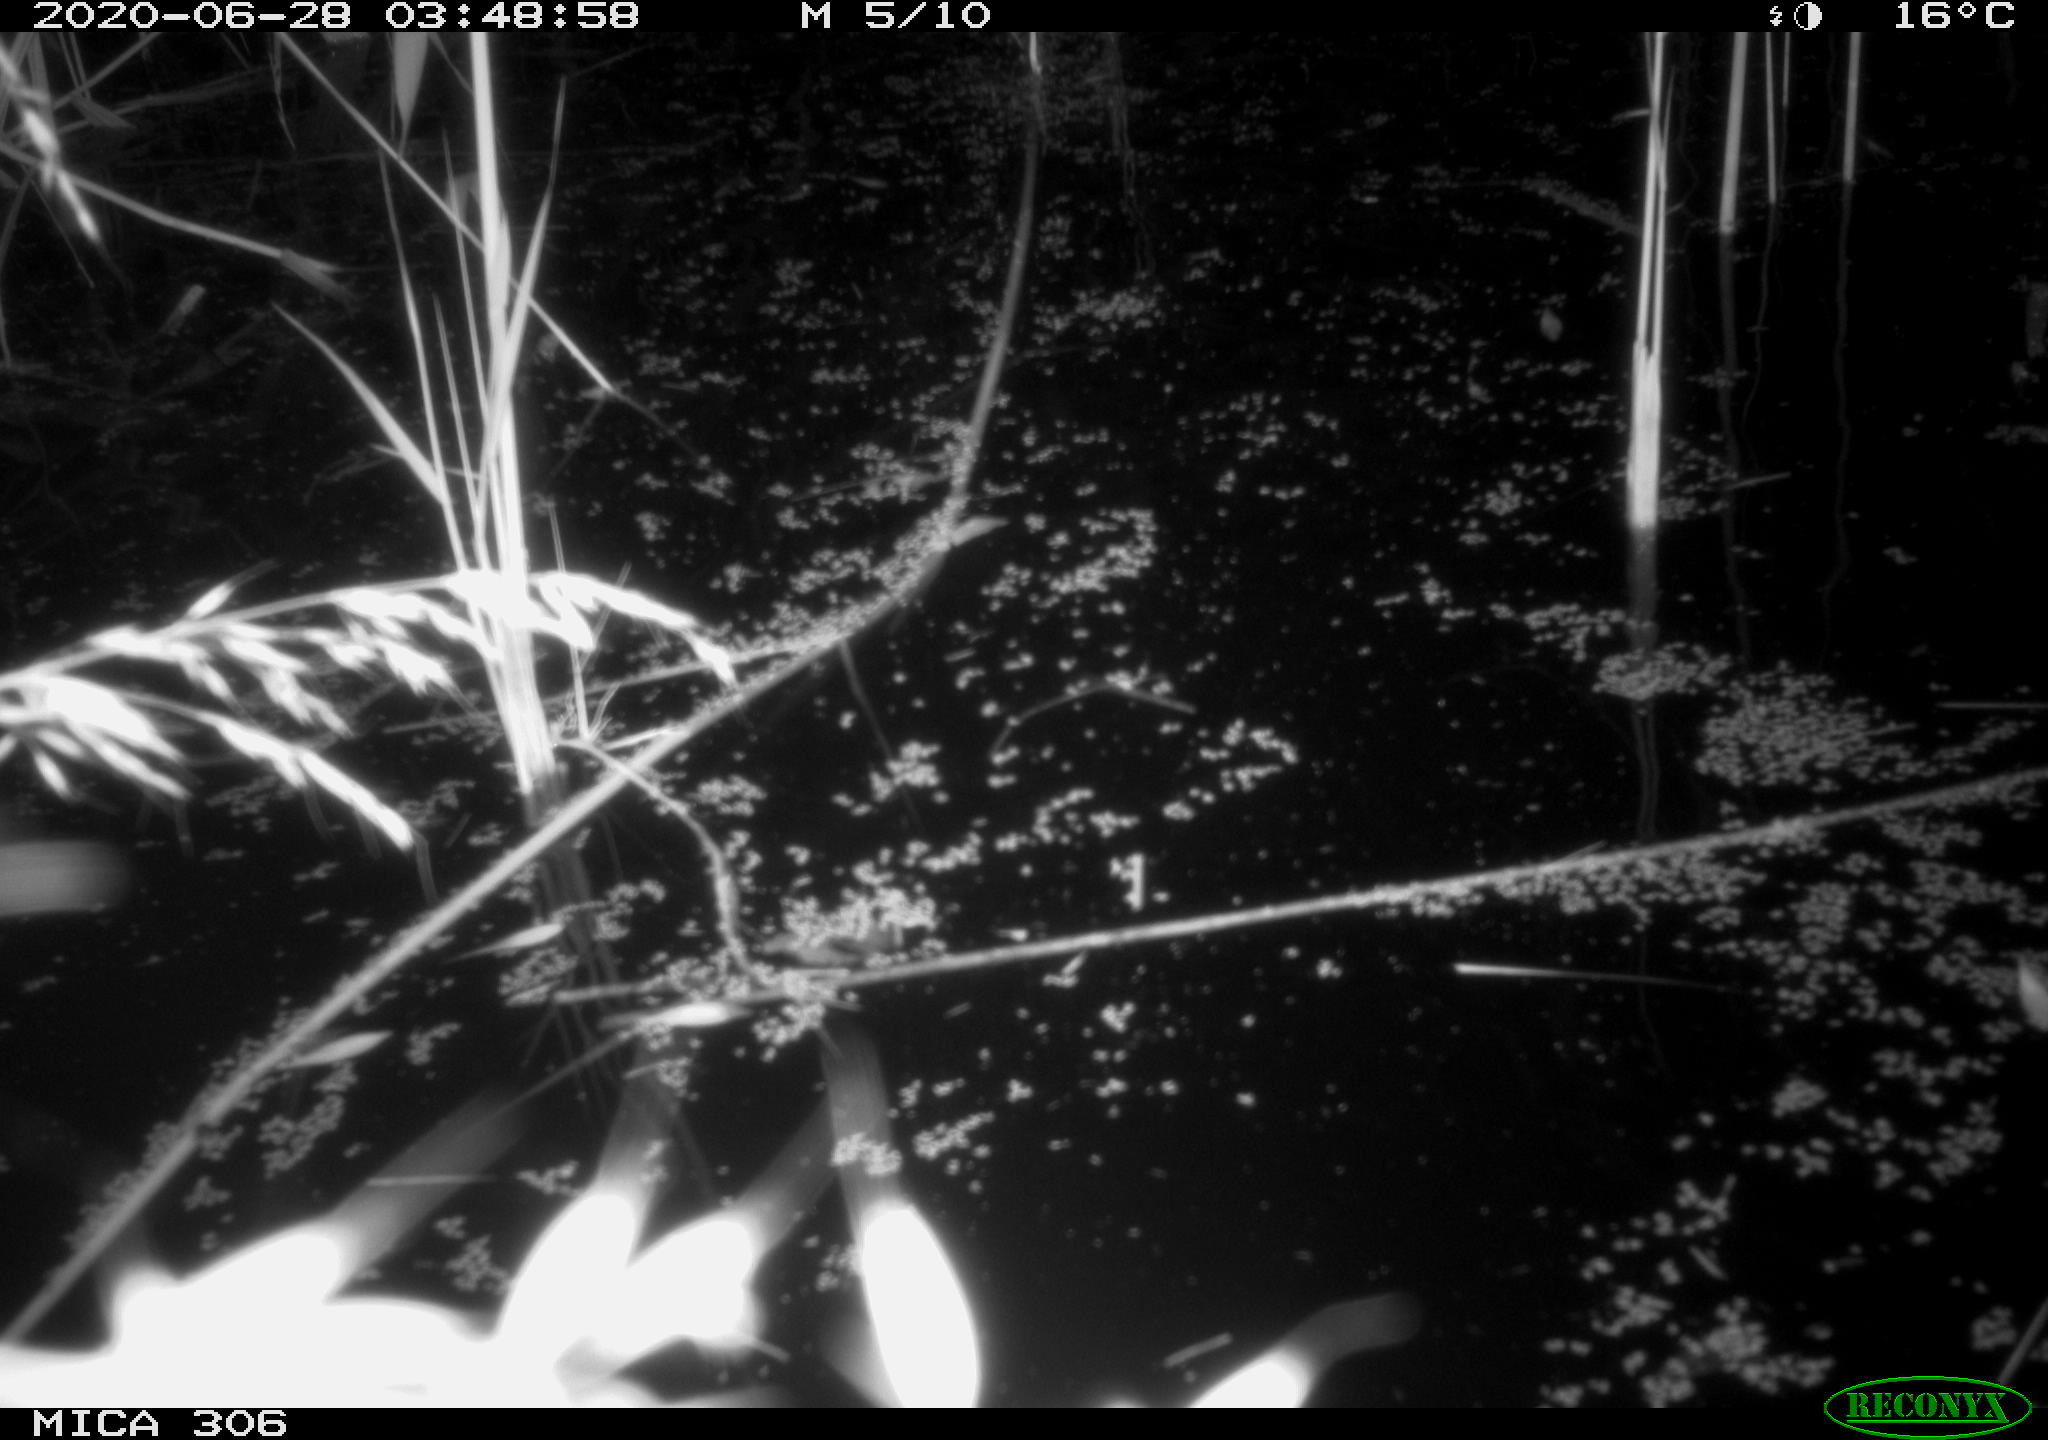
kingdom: Animalia
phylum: Chordata
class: Mammalia
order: Rodentia
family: Cricetidae
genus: Ondatra
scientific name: Ondatra zibethicus
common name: Muskrat
